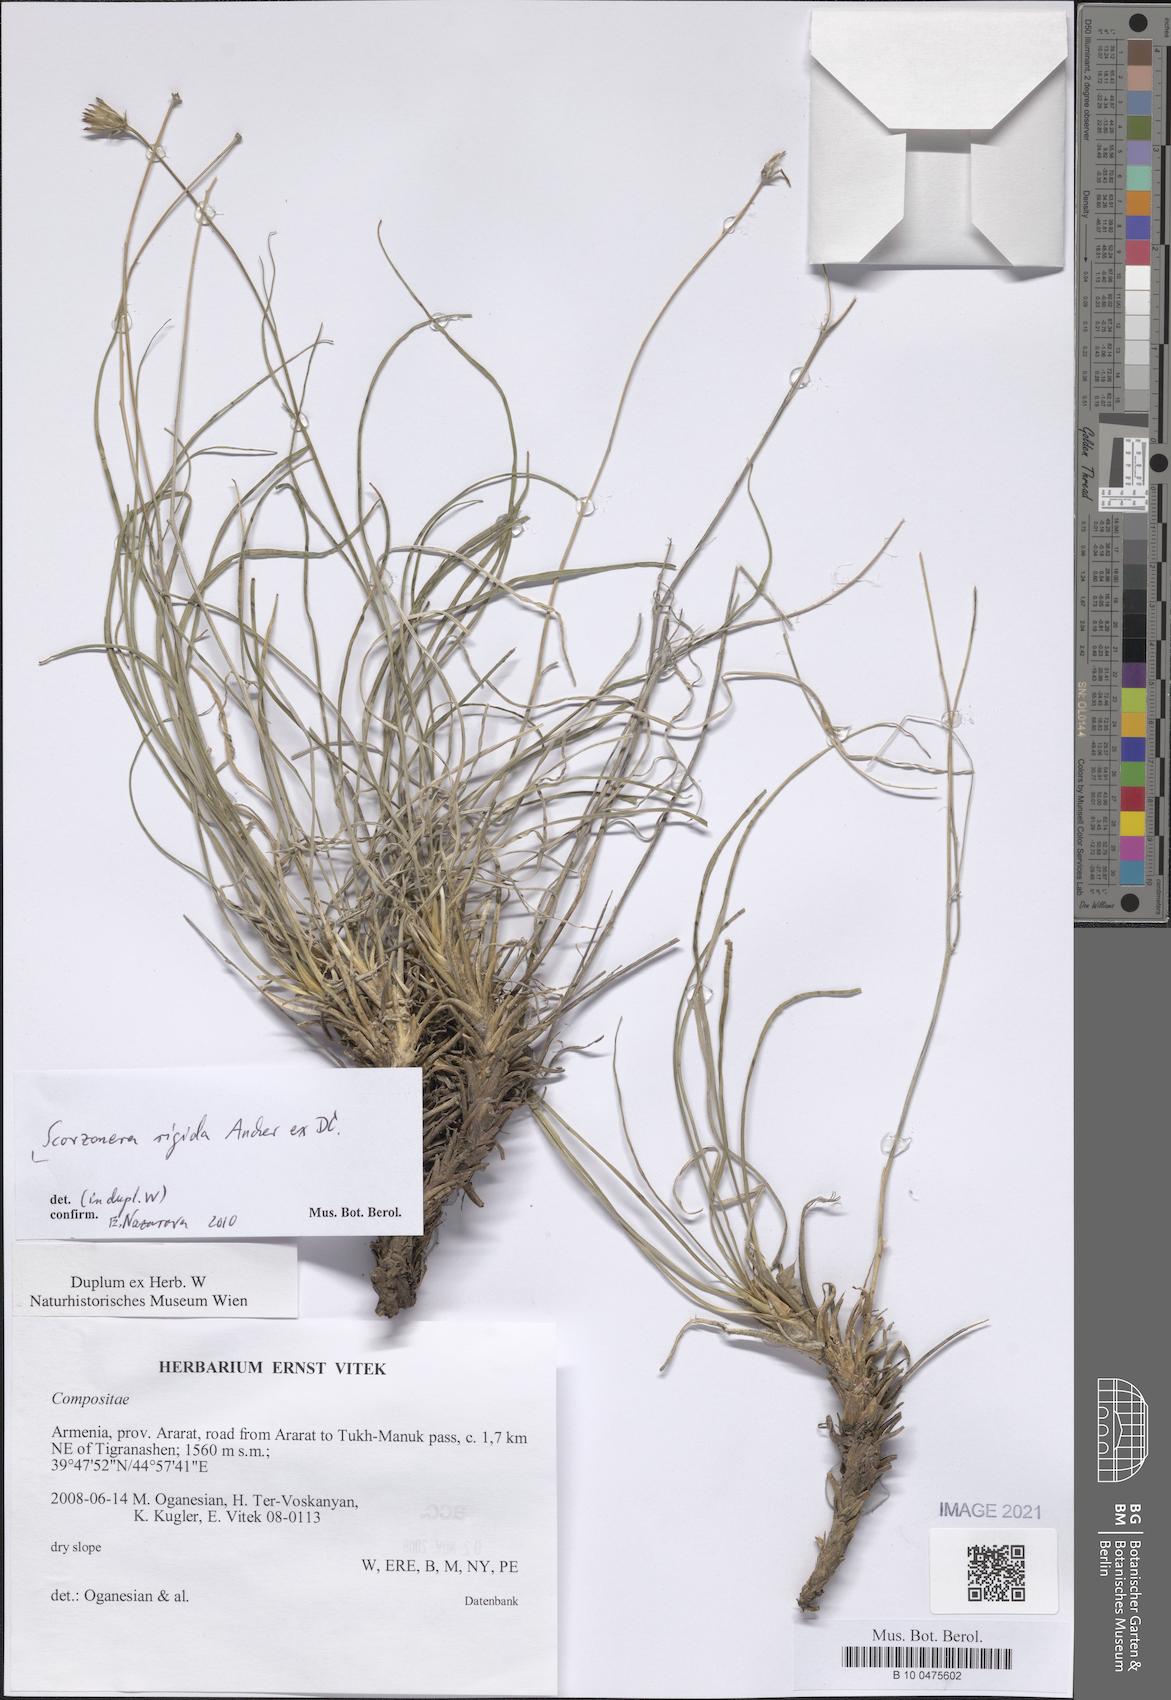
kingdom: Plantae
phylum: Tracheophyta
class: Magnoliopsida
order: Asterales
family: Asteraceae
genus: Goekyighitia
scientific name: Goekyighitia rigida
